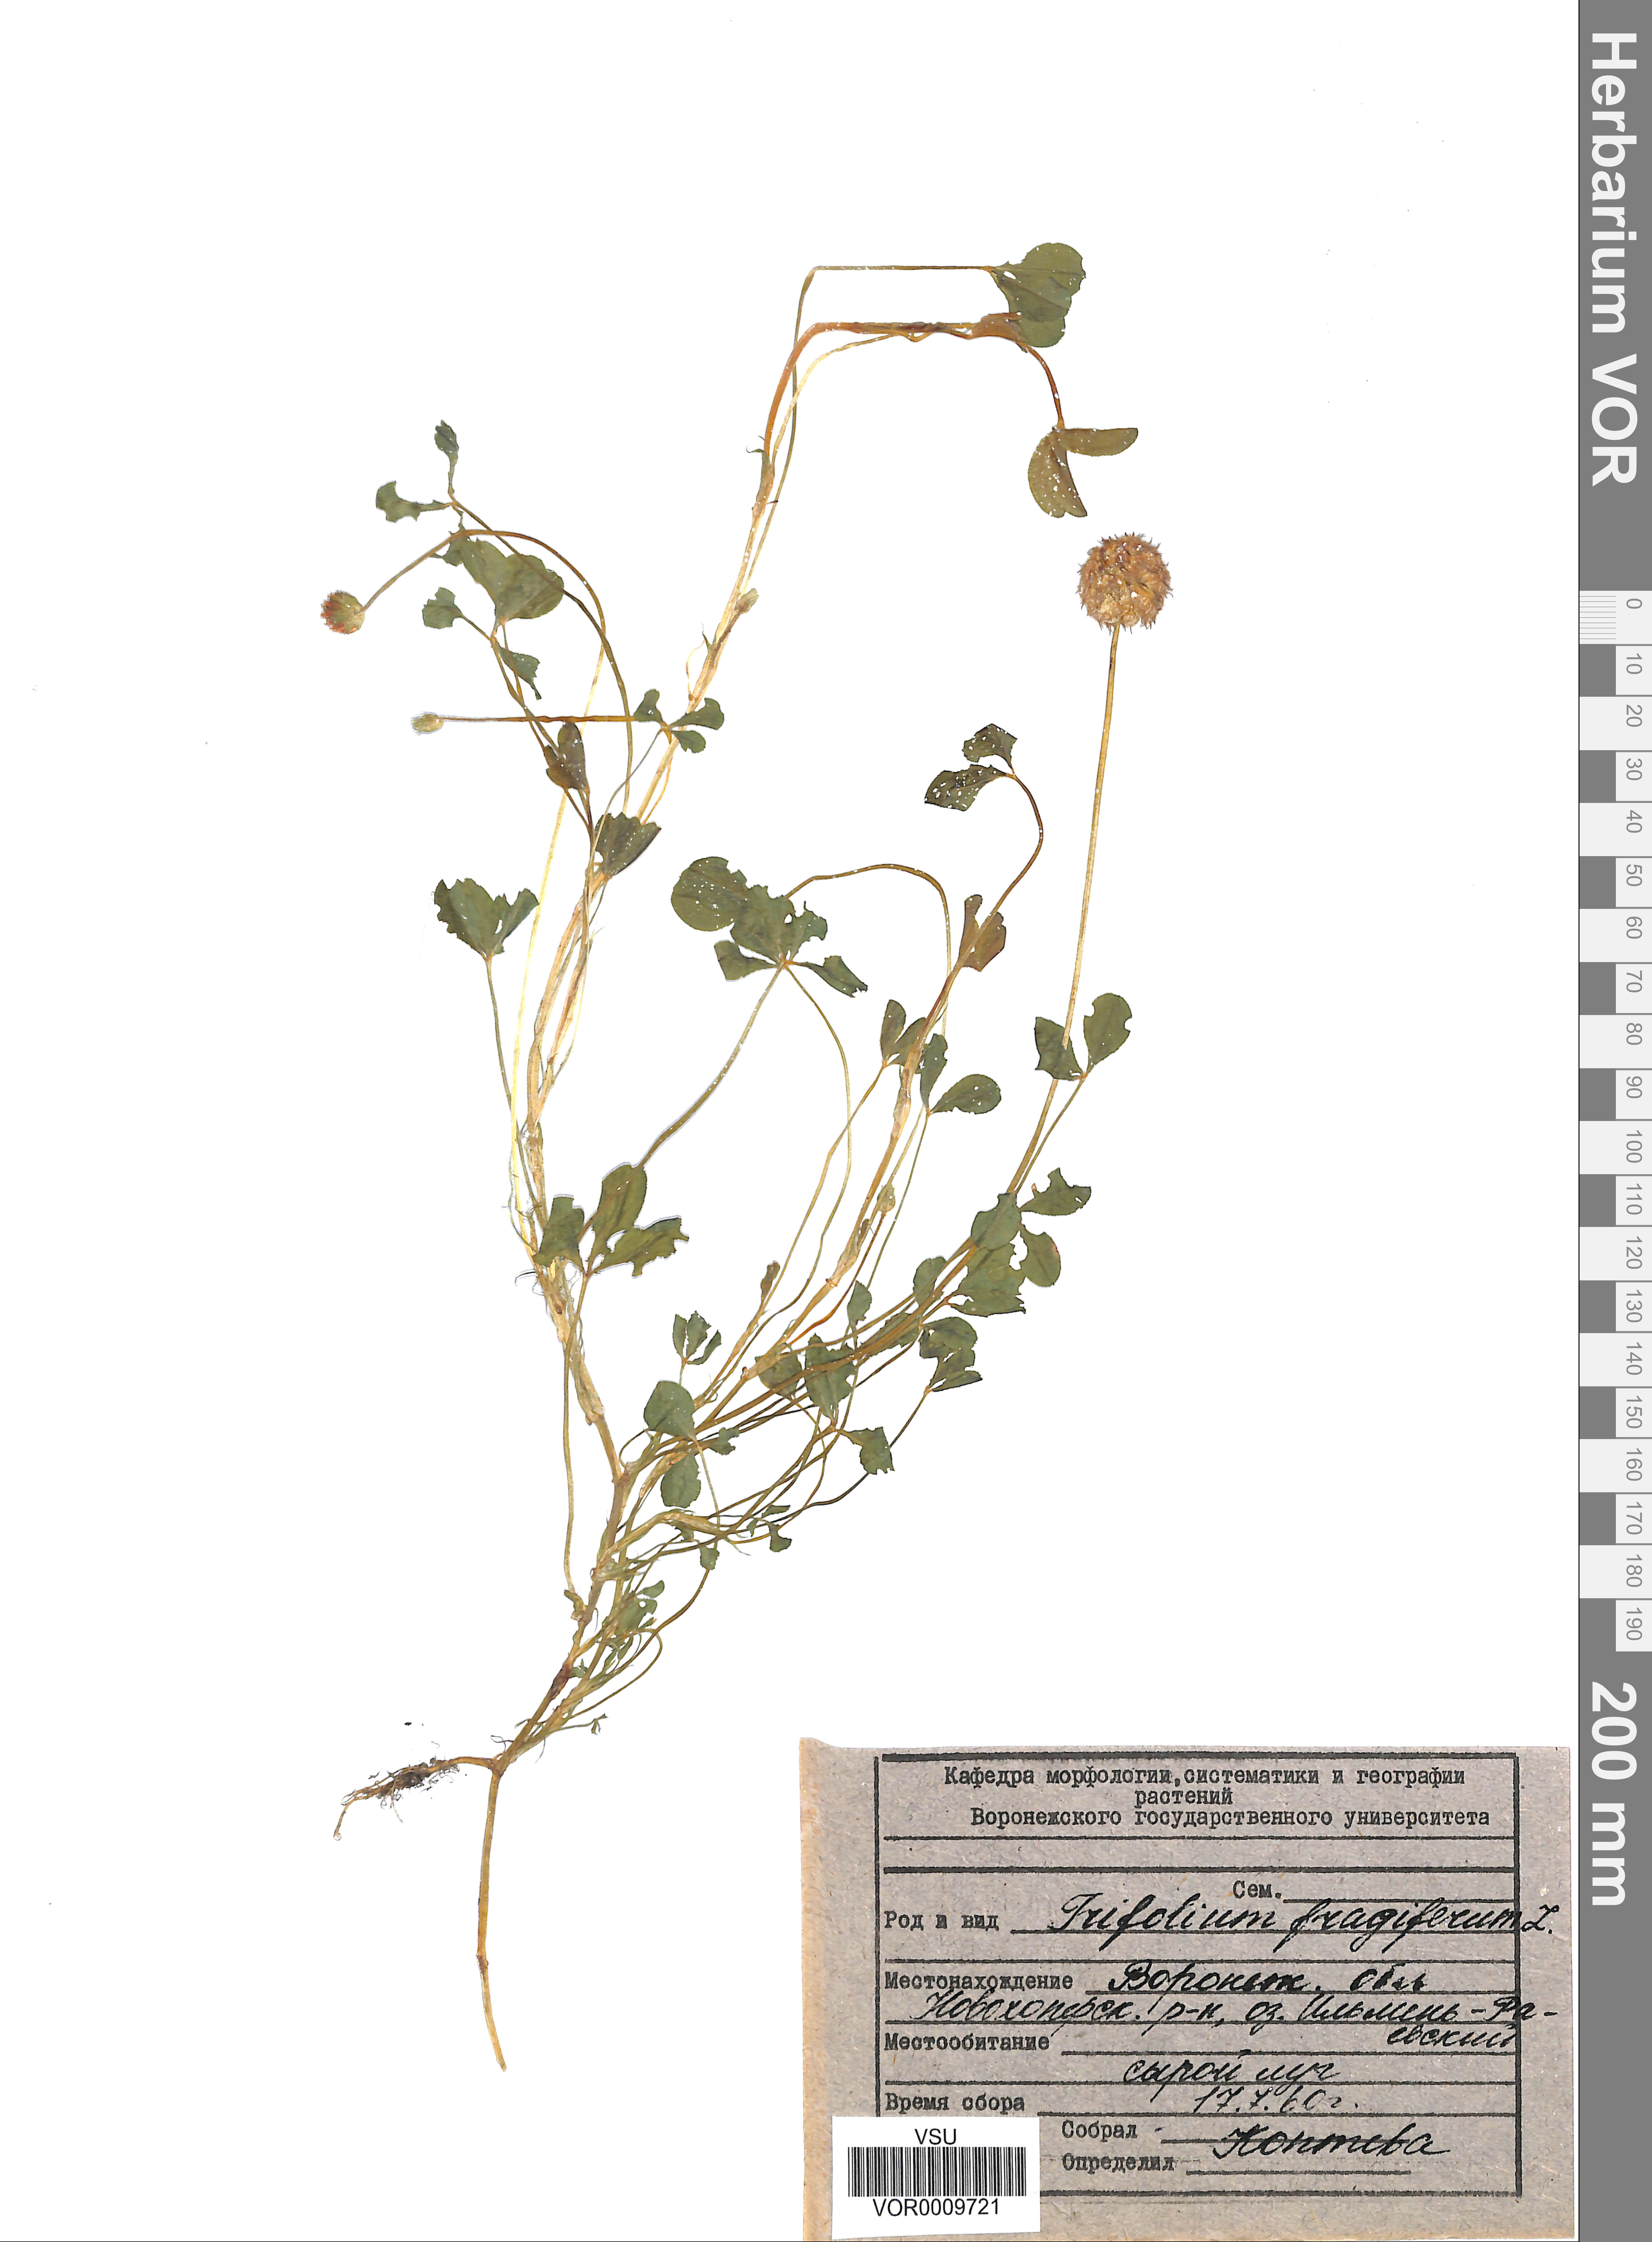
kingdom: Plantae
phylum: Tracheophyta
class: Magnoliopsida
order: Fabales
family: Fabaceae
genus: Trifolium
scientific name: Trifolium fragiferum
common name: Strawberry clover
